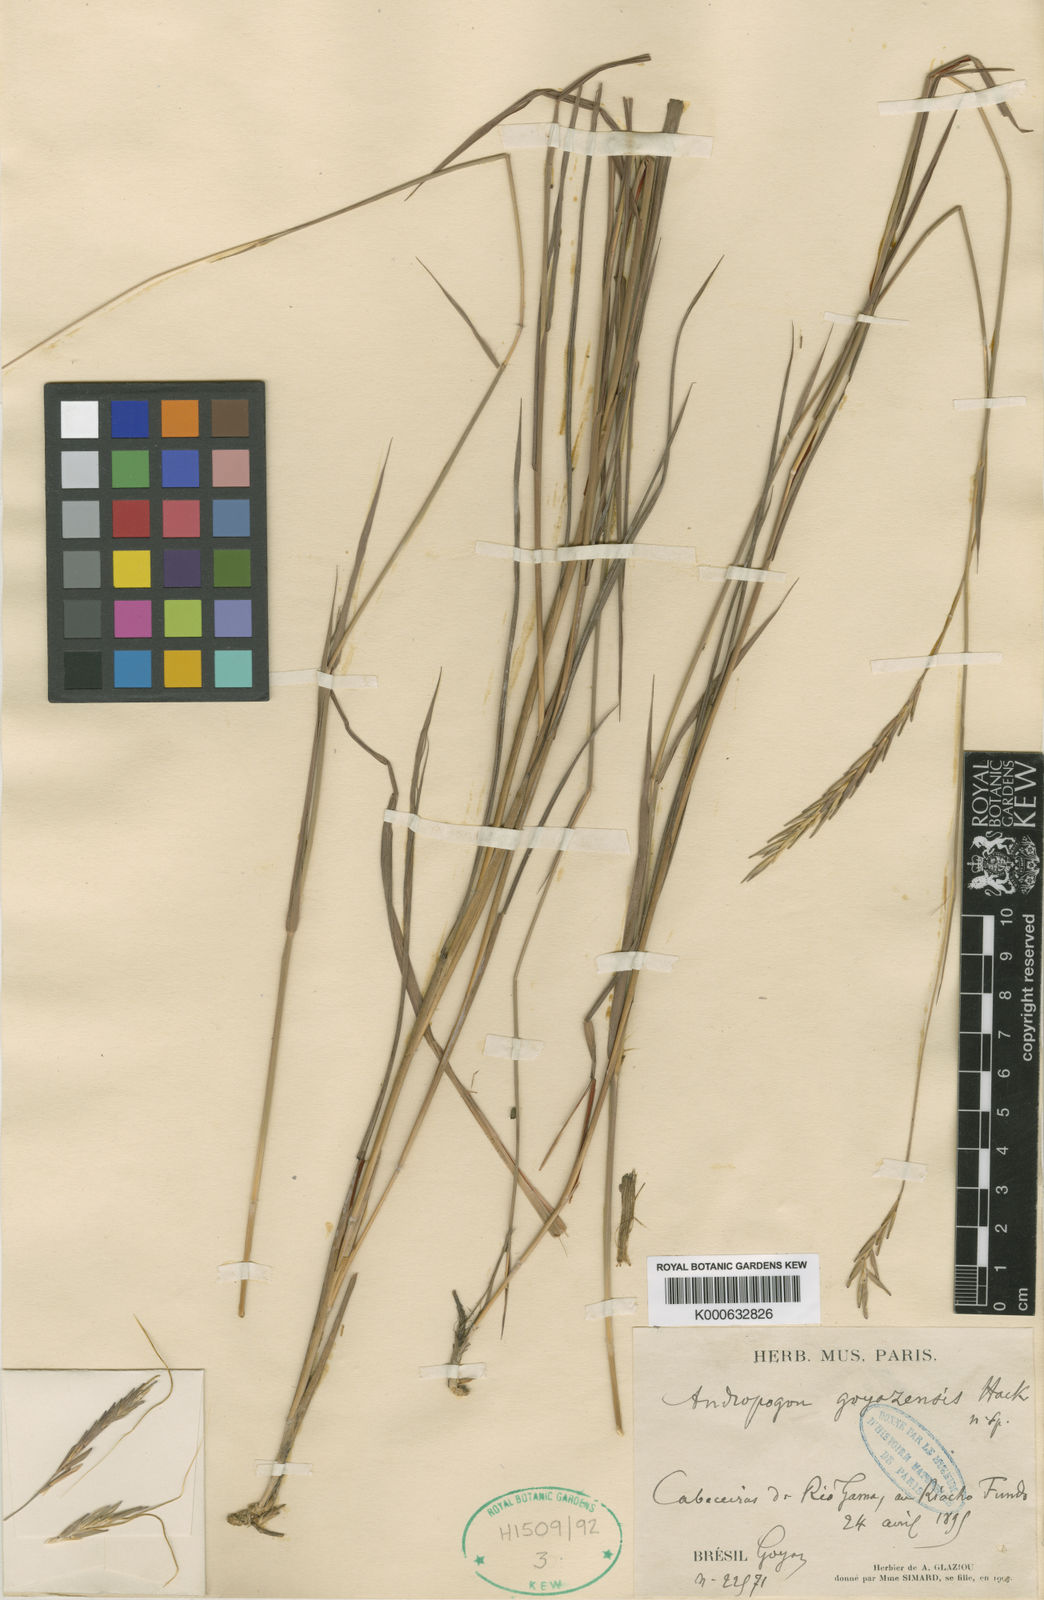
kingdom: Plantae
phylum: Tracheophyta
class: Liliopsida
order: Poales
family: Poaceae
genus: Agenium
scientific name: Agenium leptocladum
